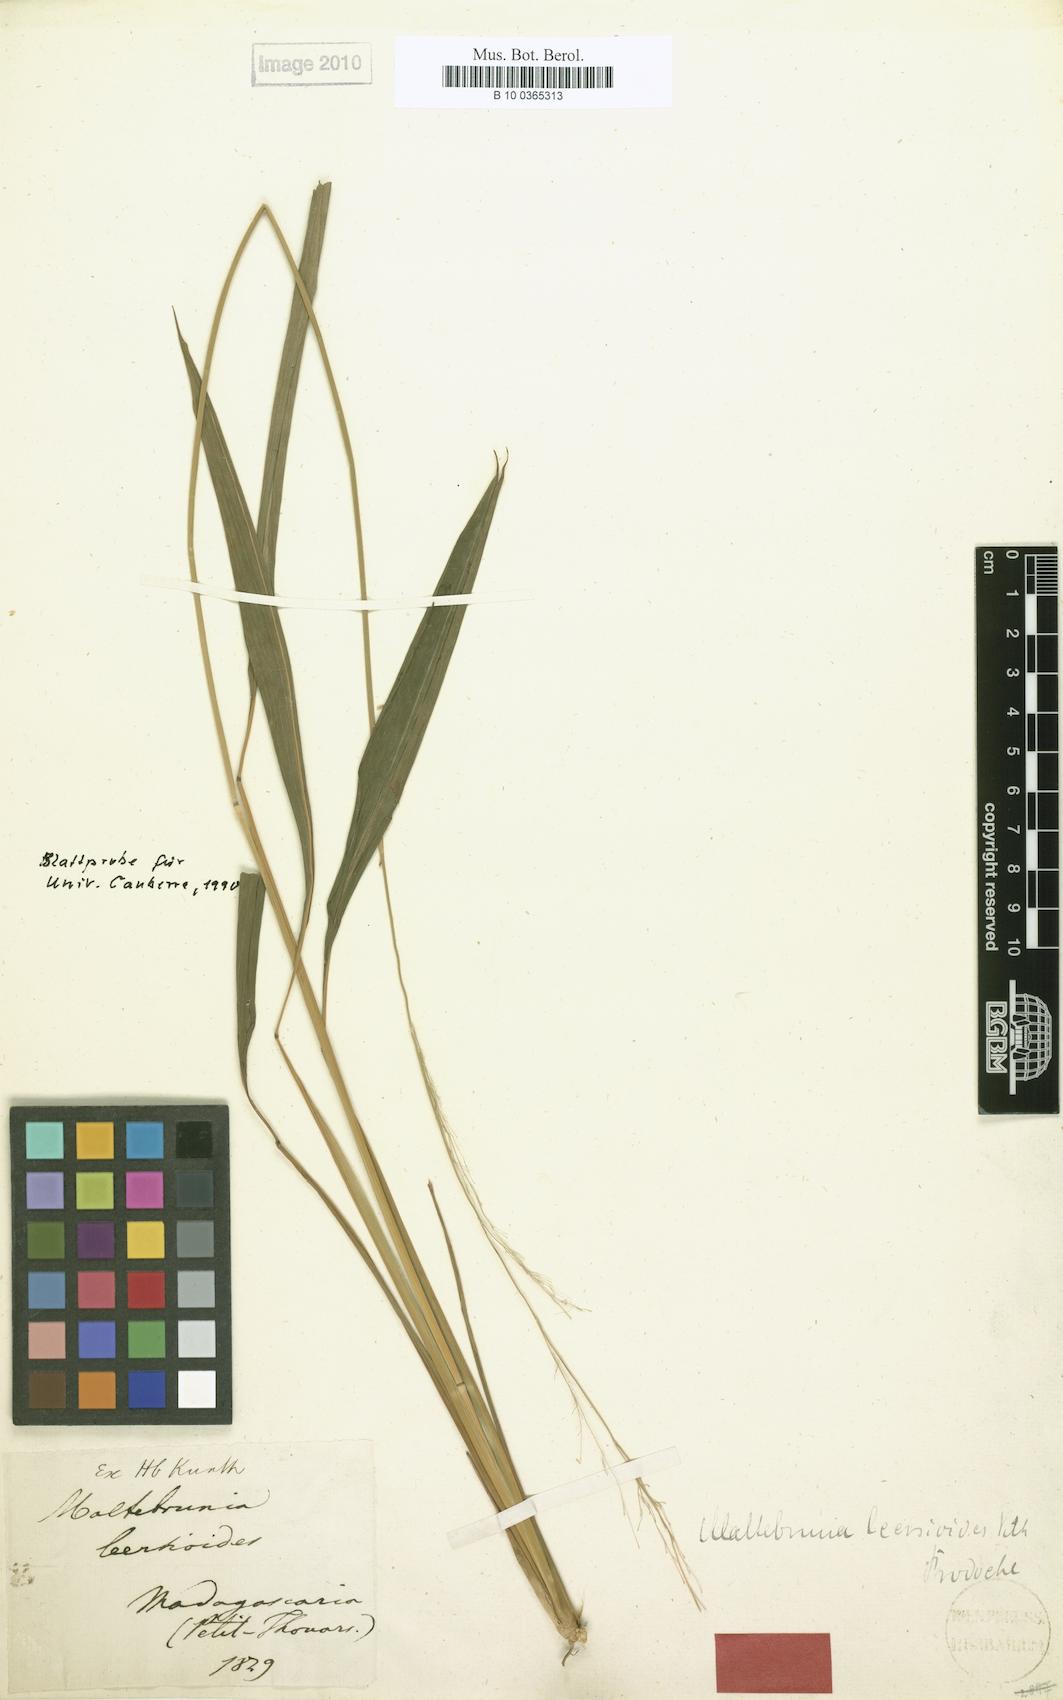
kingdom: Plantae
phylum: Tracheophyta
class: Liliopsida
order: Poales
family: Poaceae
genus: Maltebrunia
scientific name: Maltebrunia leersioides
